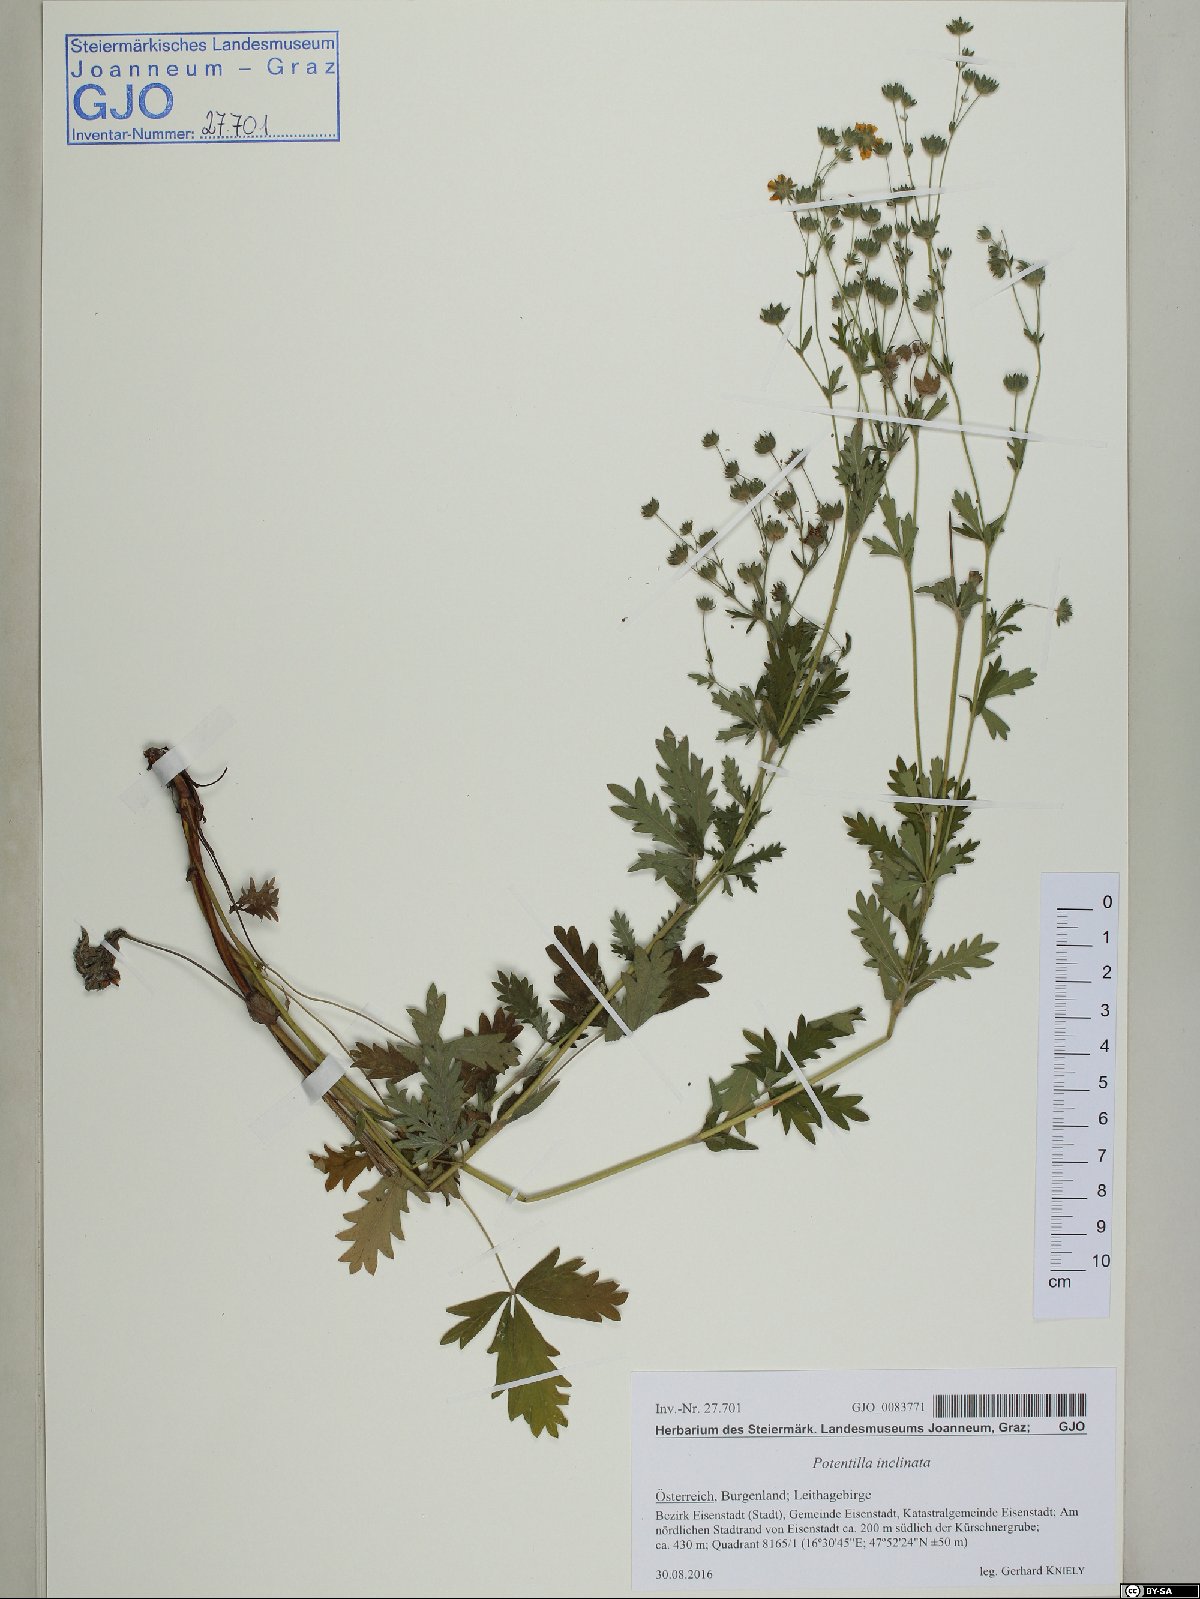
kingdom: Plantae
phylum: Tracheophyta
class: Magnoliopsida
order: Rosales
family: Rosaceae
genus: Potentilla
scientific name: Potentilla inclinata
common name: Grey cinquefoil
